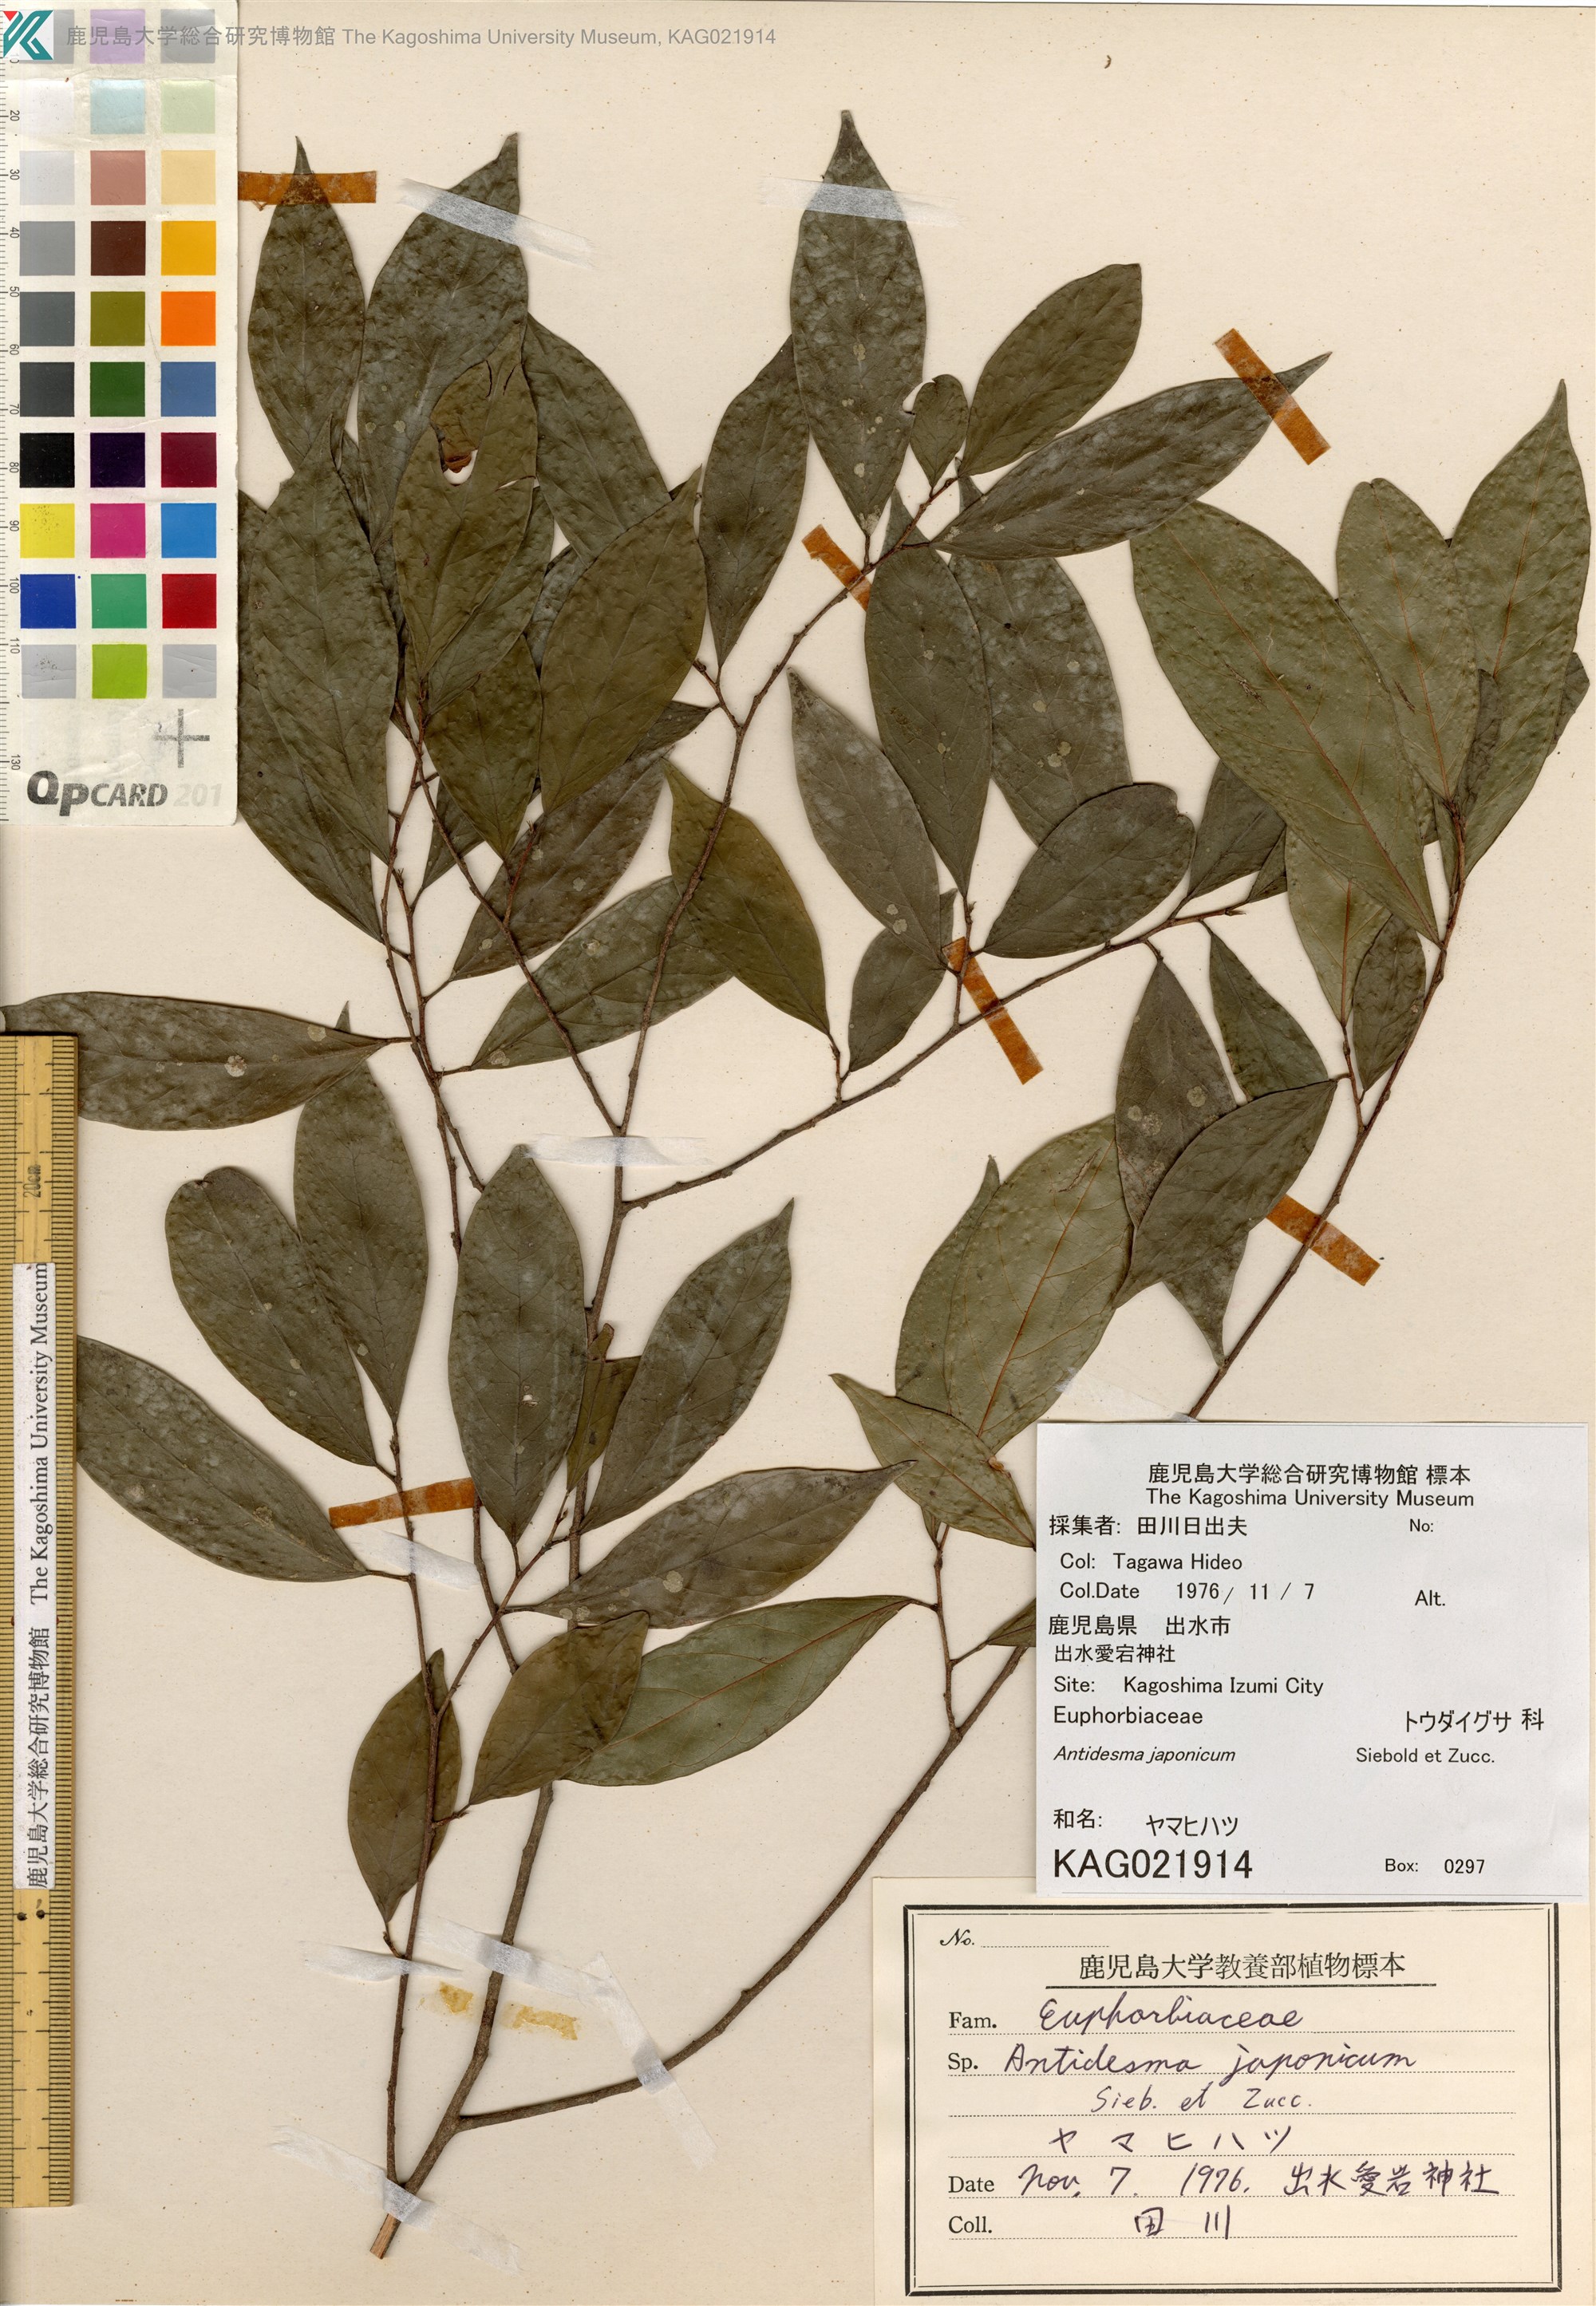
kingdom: Plantae
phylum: Tracheophyta
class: Magnoliopsida
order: Malpighiales
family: Phyllanthaceae
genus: Antidesma
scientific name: Antidesma japonicum
